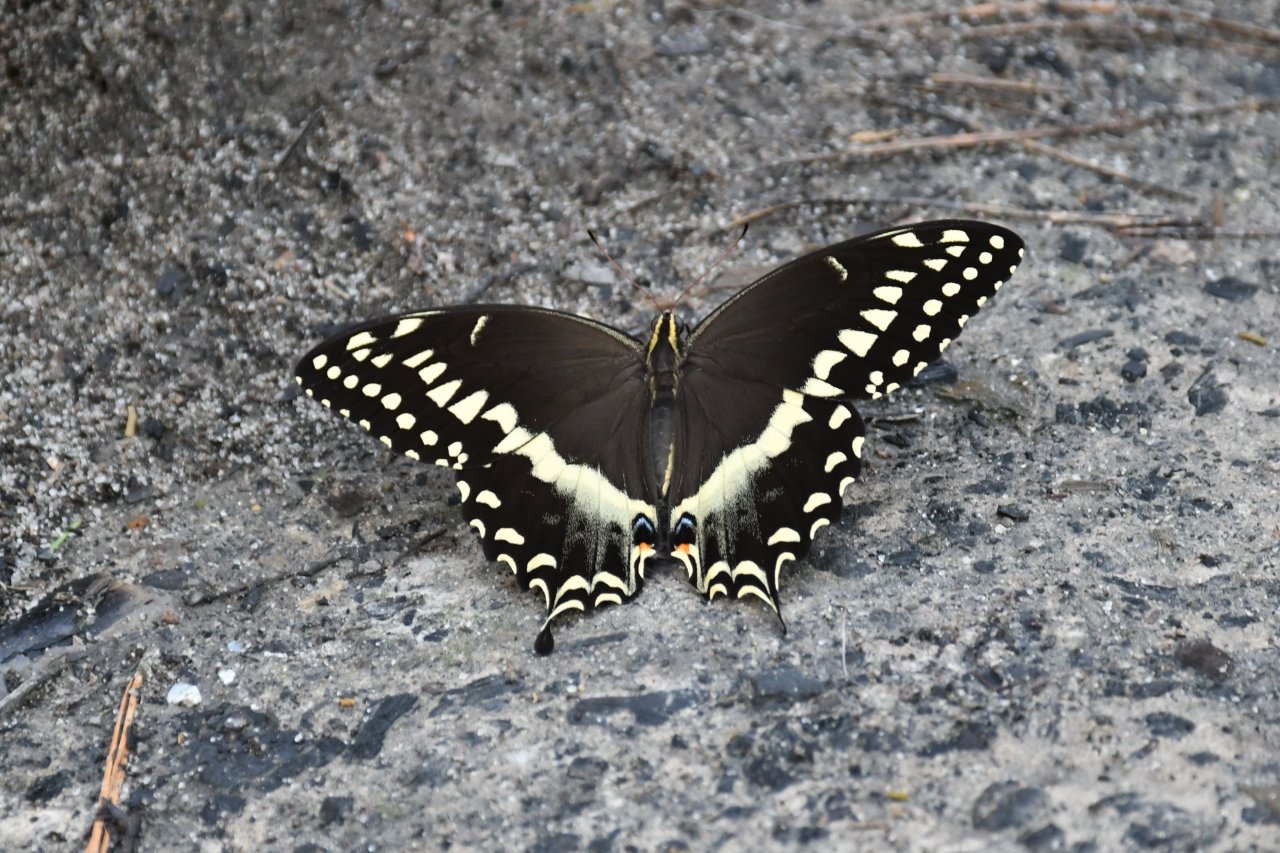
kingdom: Animalia
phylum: Arthropoda
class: Insecta
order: Lepidoptera
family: Papilionidae
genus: Pterourus
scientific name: Pterourus palamedes
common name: Palamedes Swallowtail
